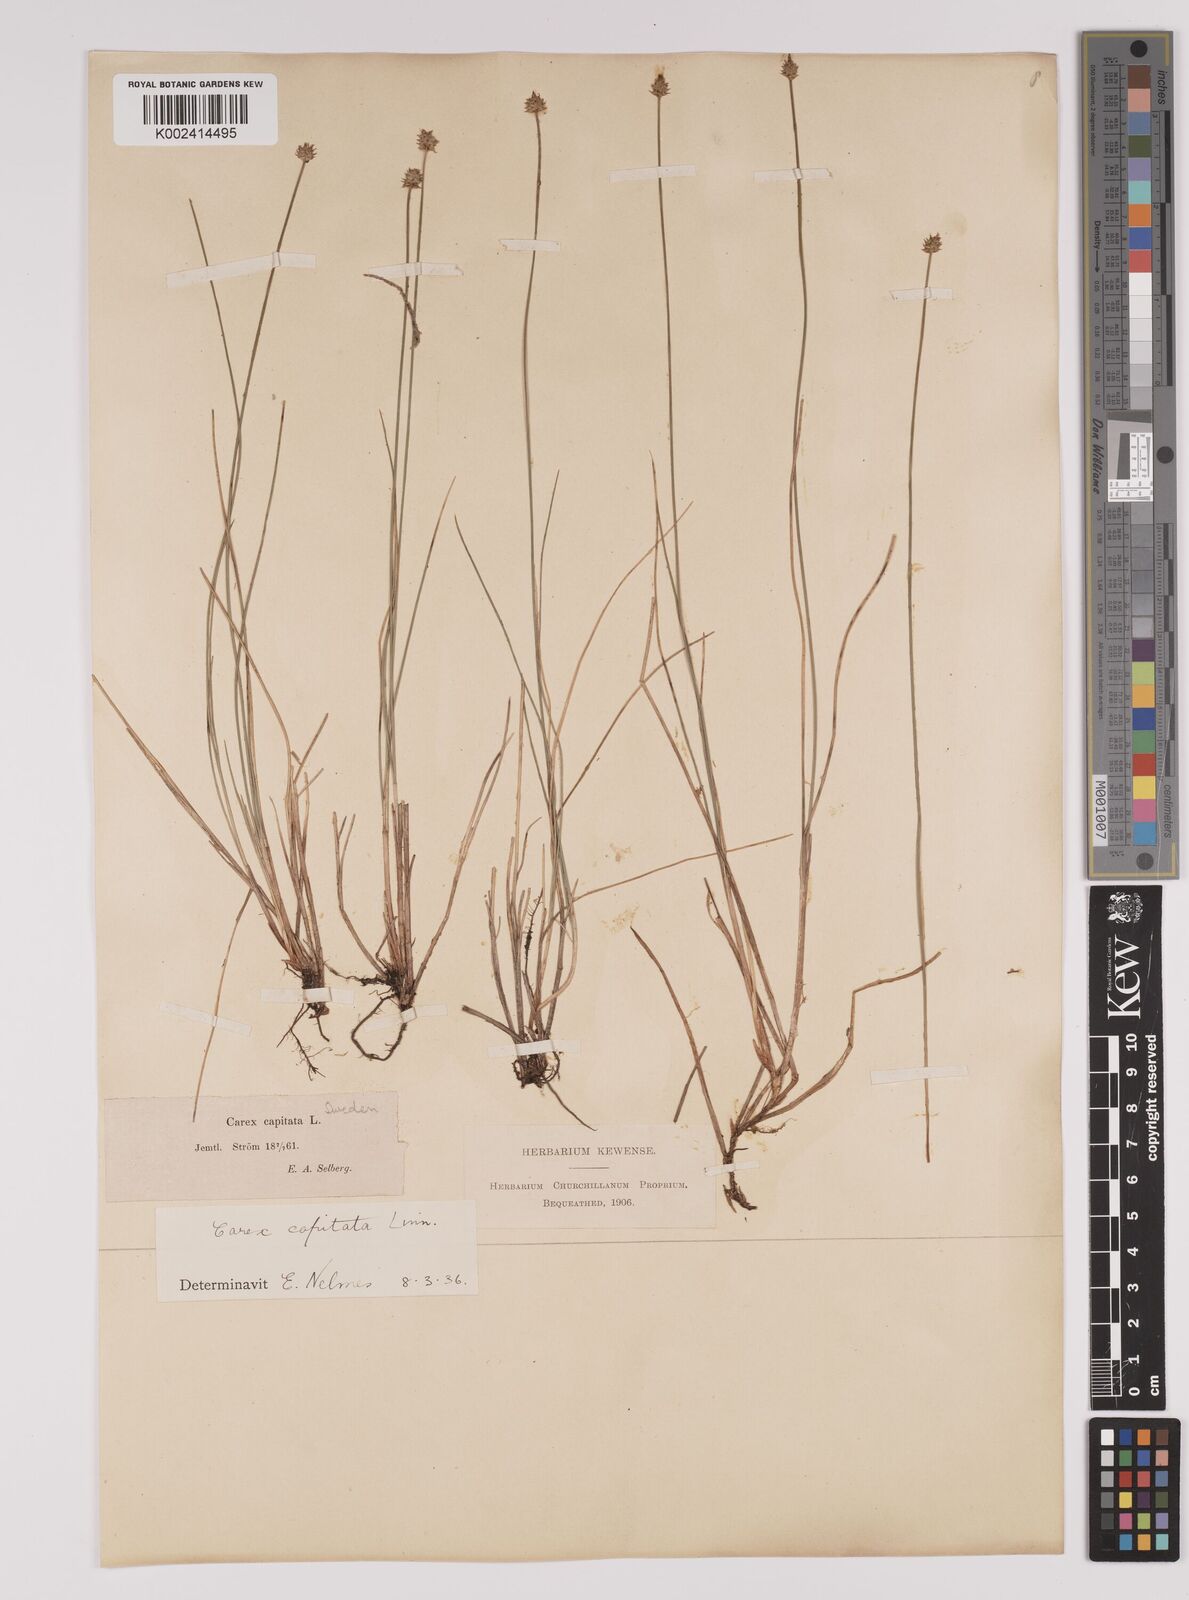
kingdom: Plantae
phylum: Tracheophyta
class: Liliopsida
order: Poales
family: Cyperaceae
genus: Carex
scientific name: Carex capitata
